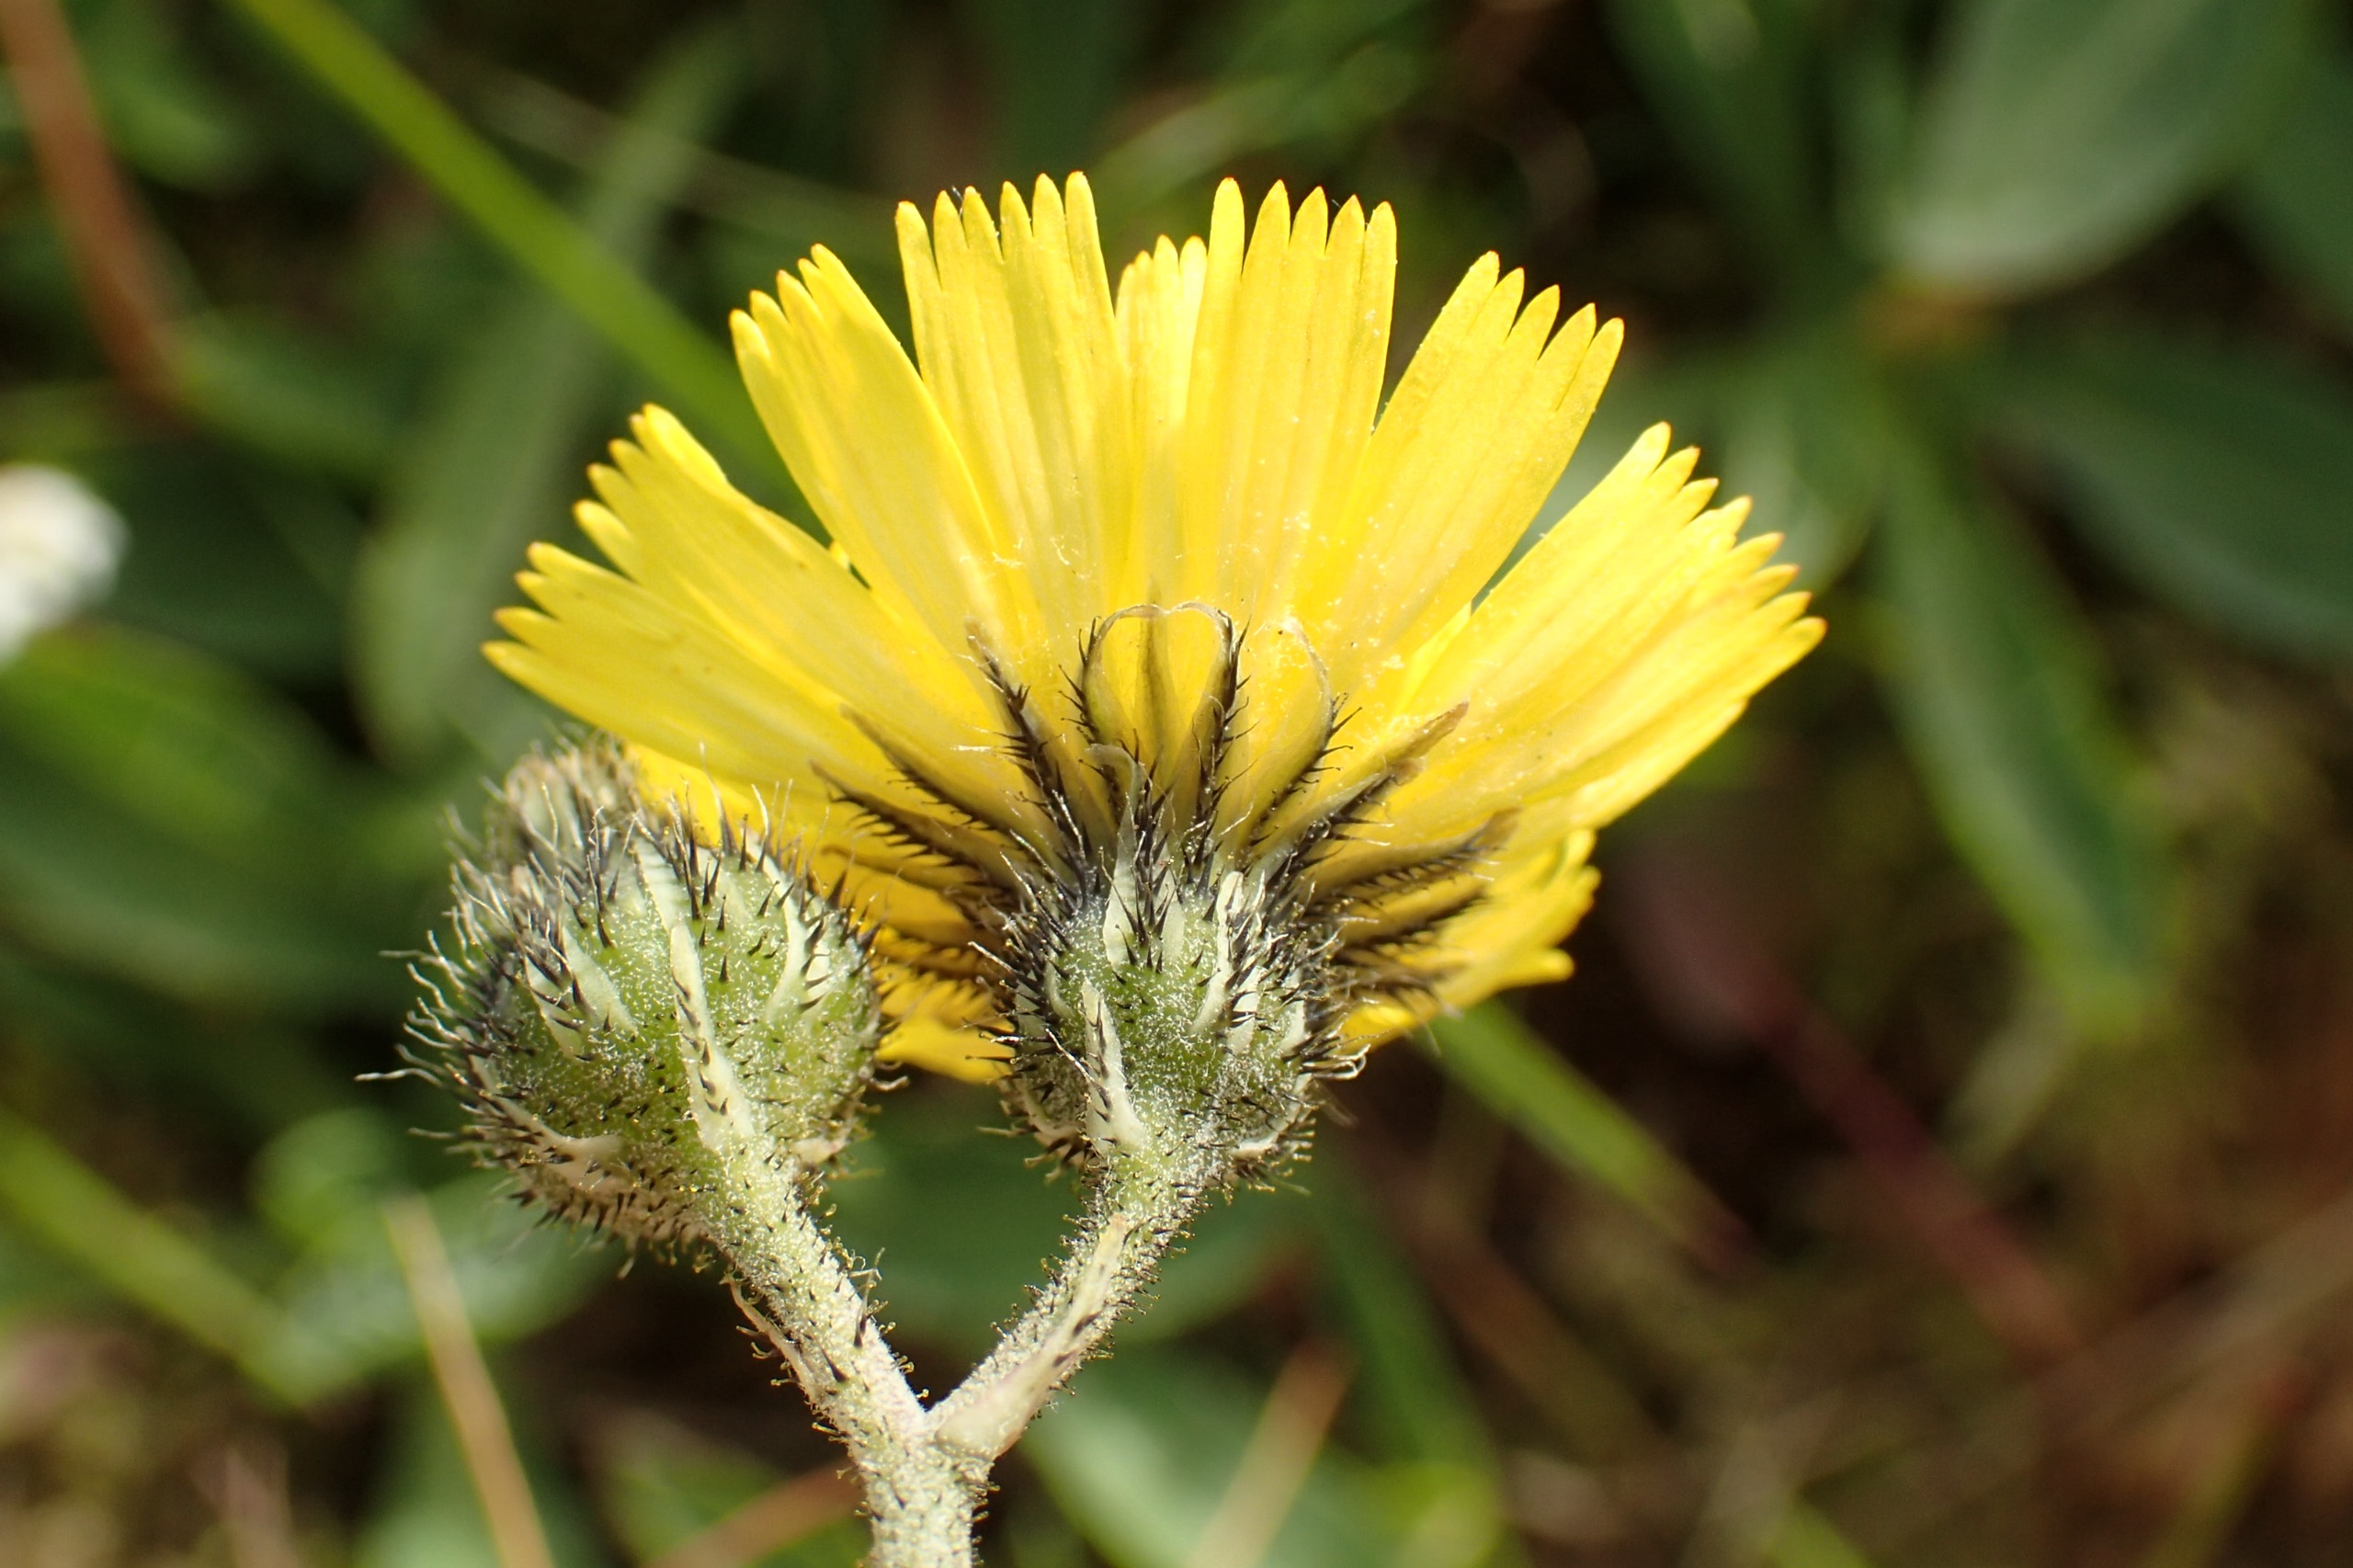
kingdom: Plantae
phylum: Tracheophyta
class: Magnoliopsida
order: Asterales
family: Asteraceae
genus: Pilosella
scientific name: Pilosella lactucella
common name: Lancetbladet høgeurt
